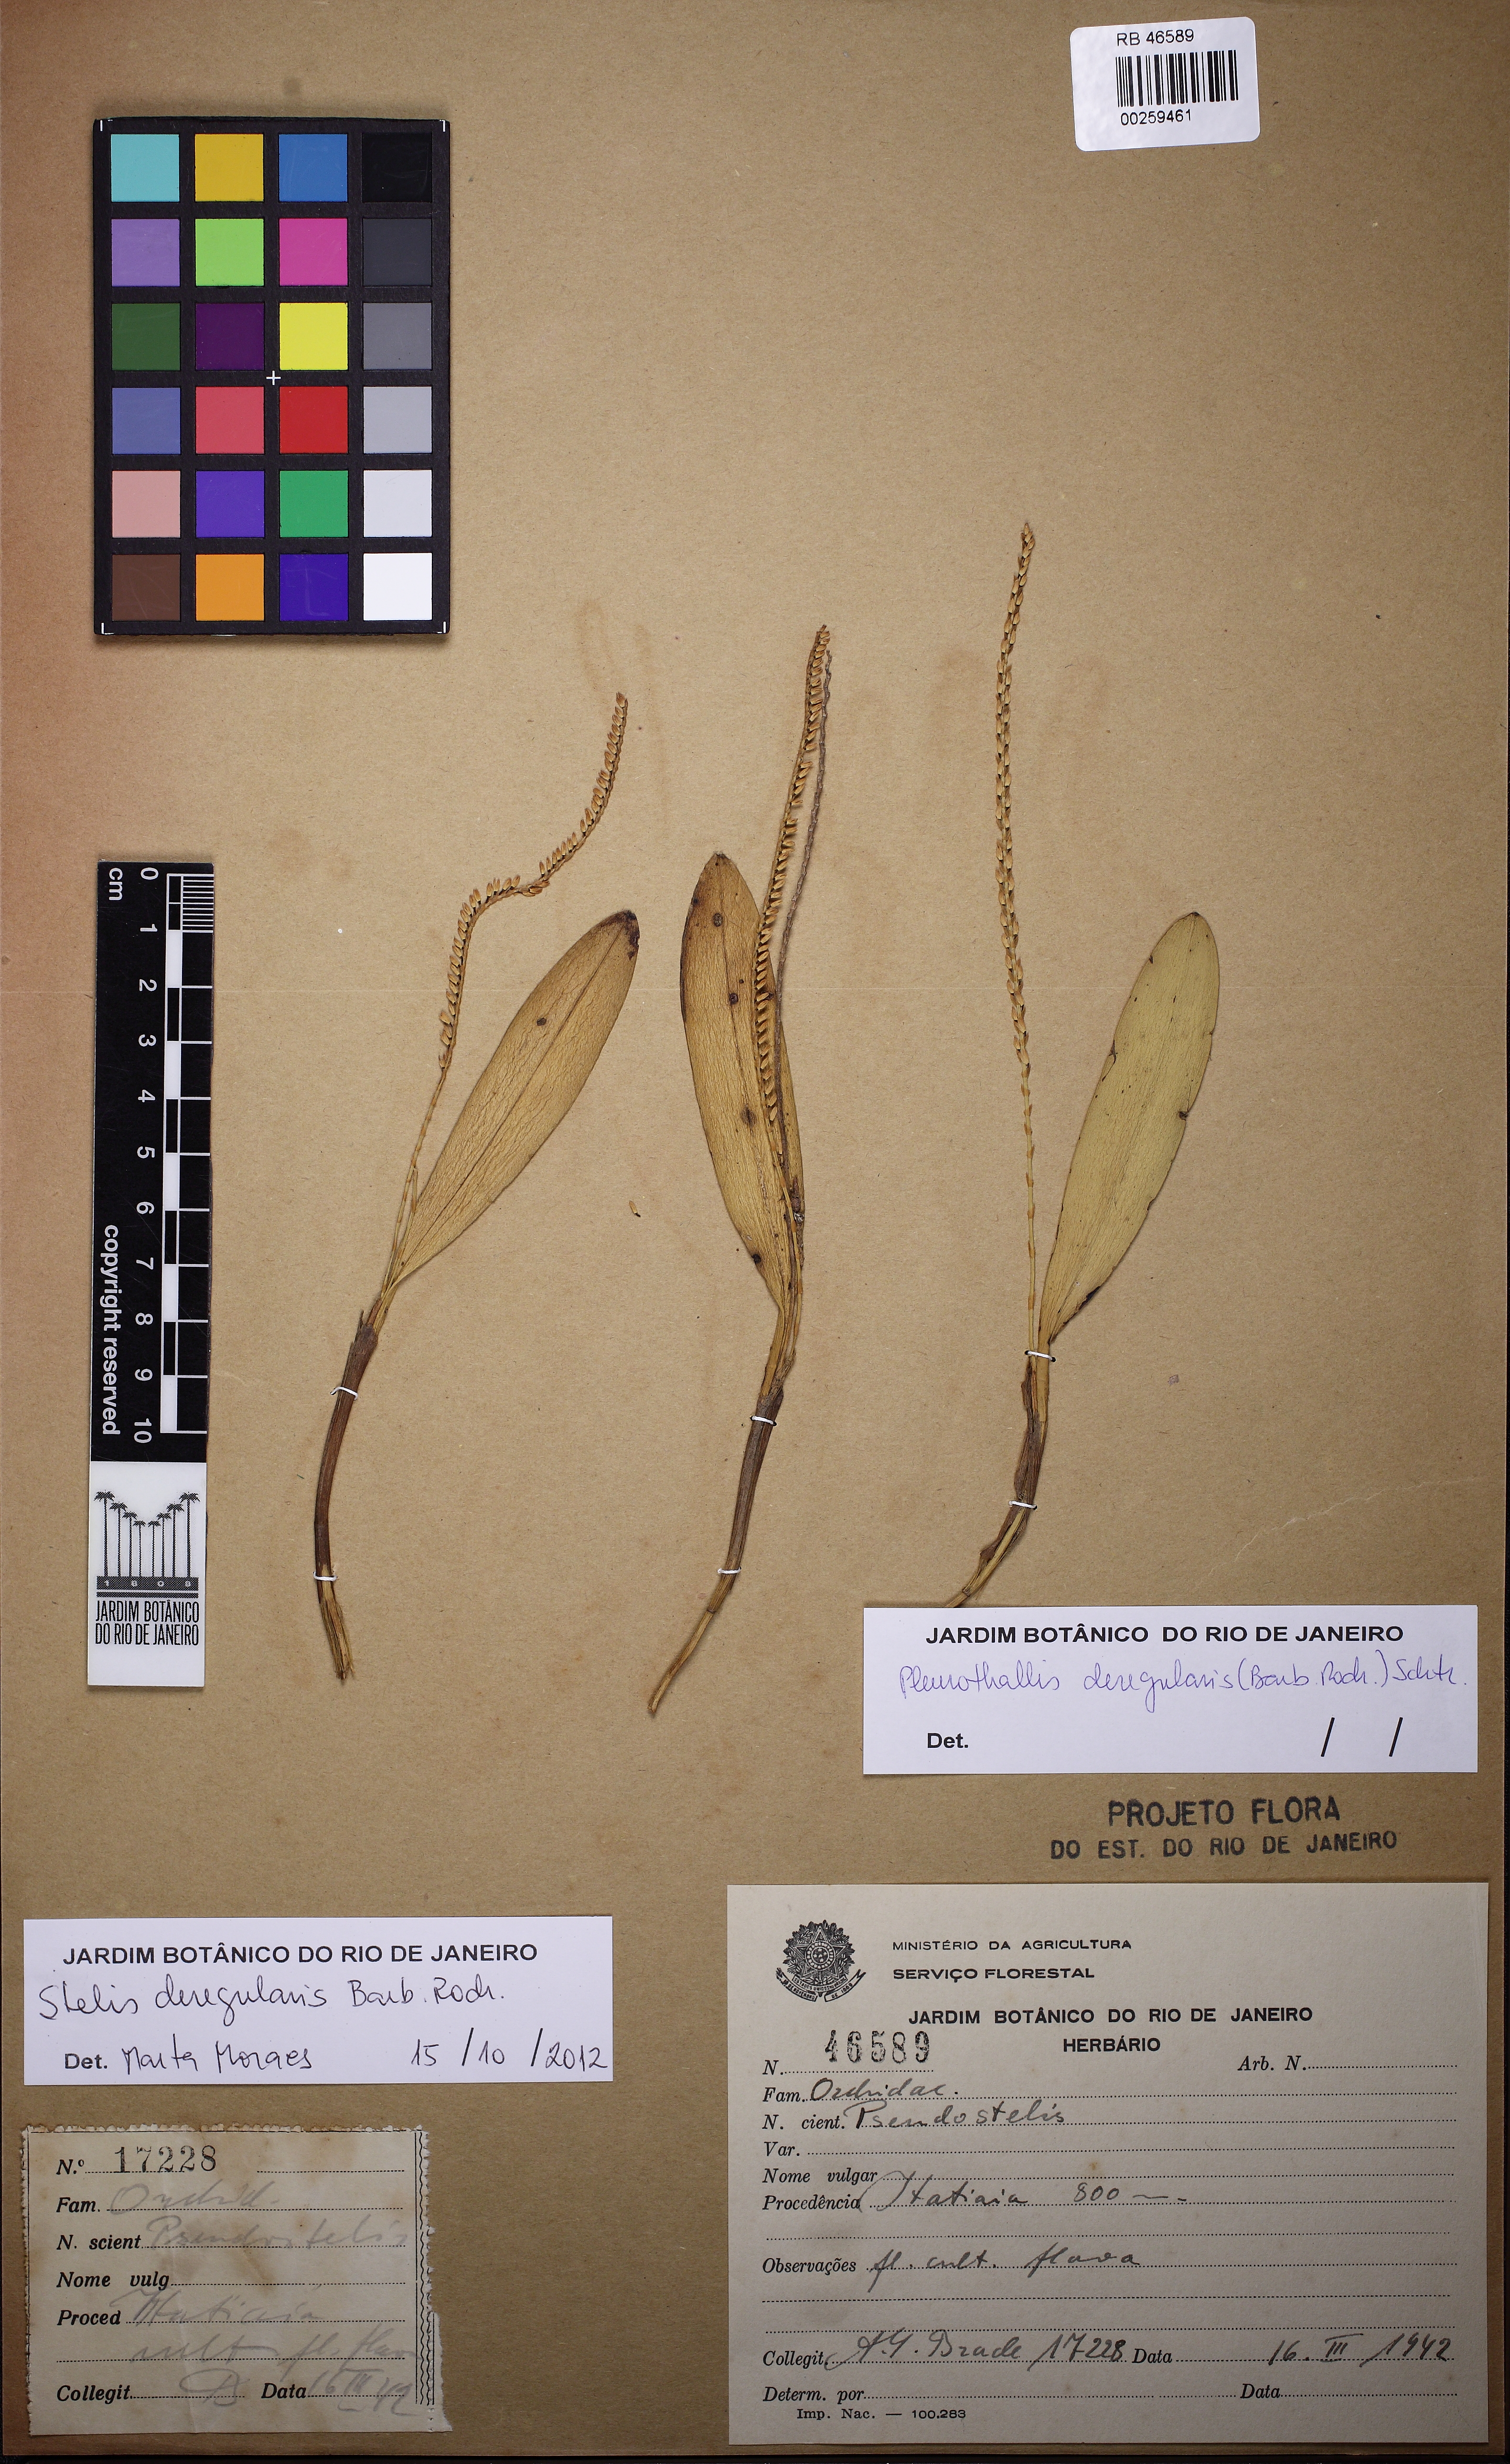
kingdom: Plantae
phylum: Tracheophyta
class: Liliopsida
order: Asparagales
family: Orchidaceae
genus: Stelis
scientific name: Stelis deregularis
